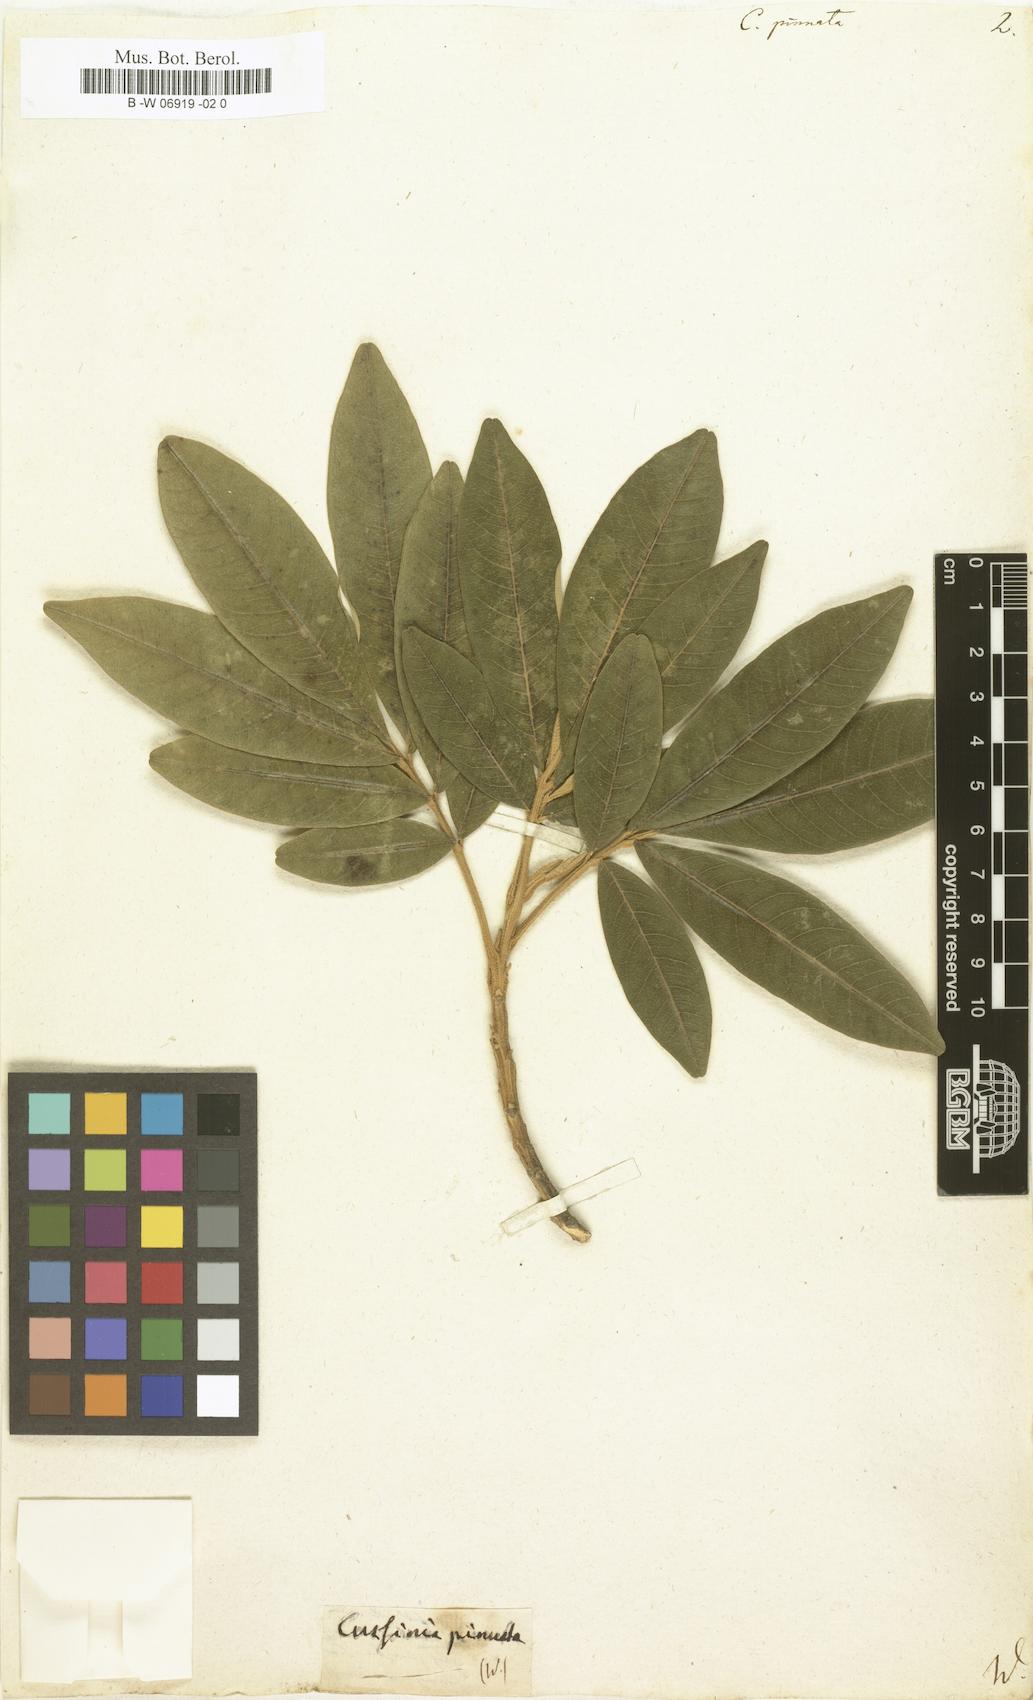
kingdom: Plantae
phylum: Tracheophyta
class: Magnoliopsida
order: Sapindales
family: Sapindaceae
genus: Cossinia
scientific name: Cossinia pinnata
